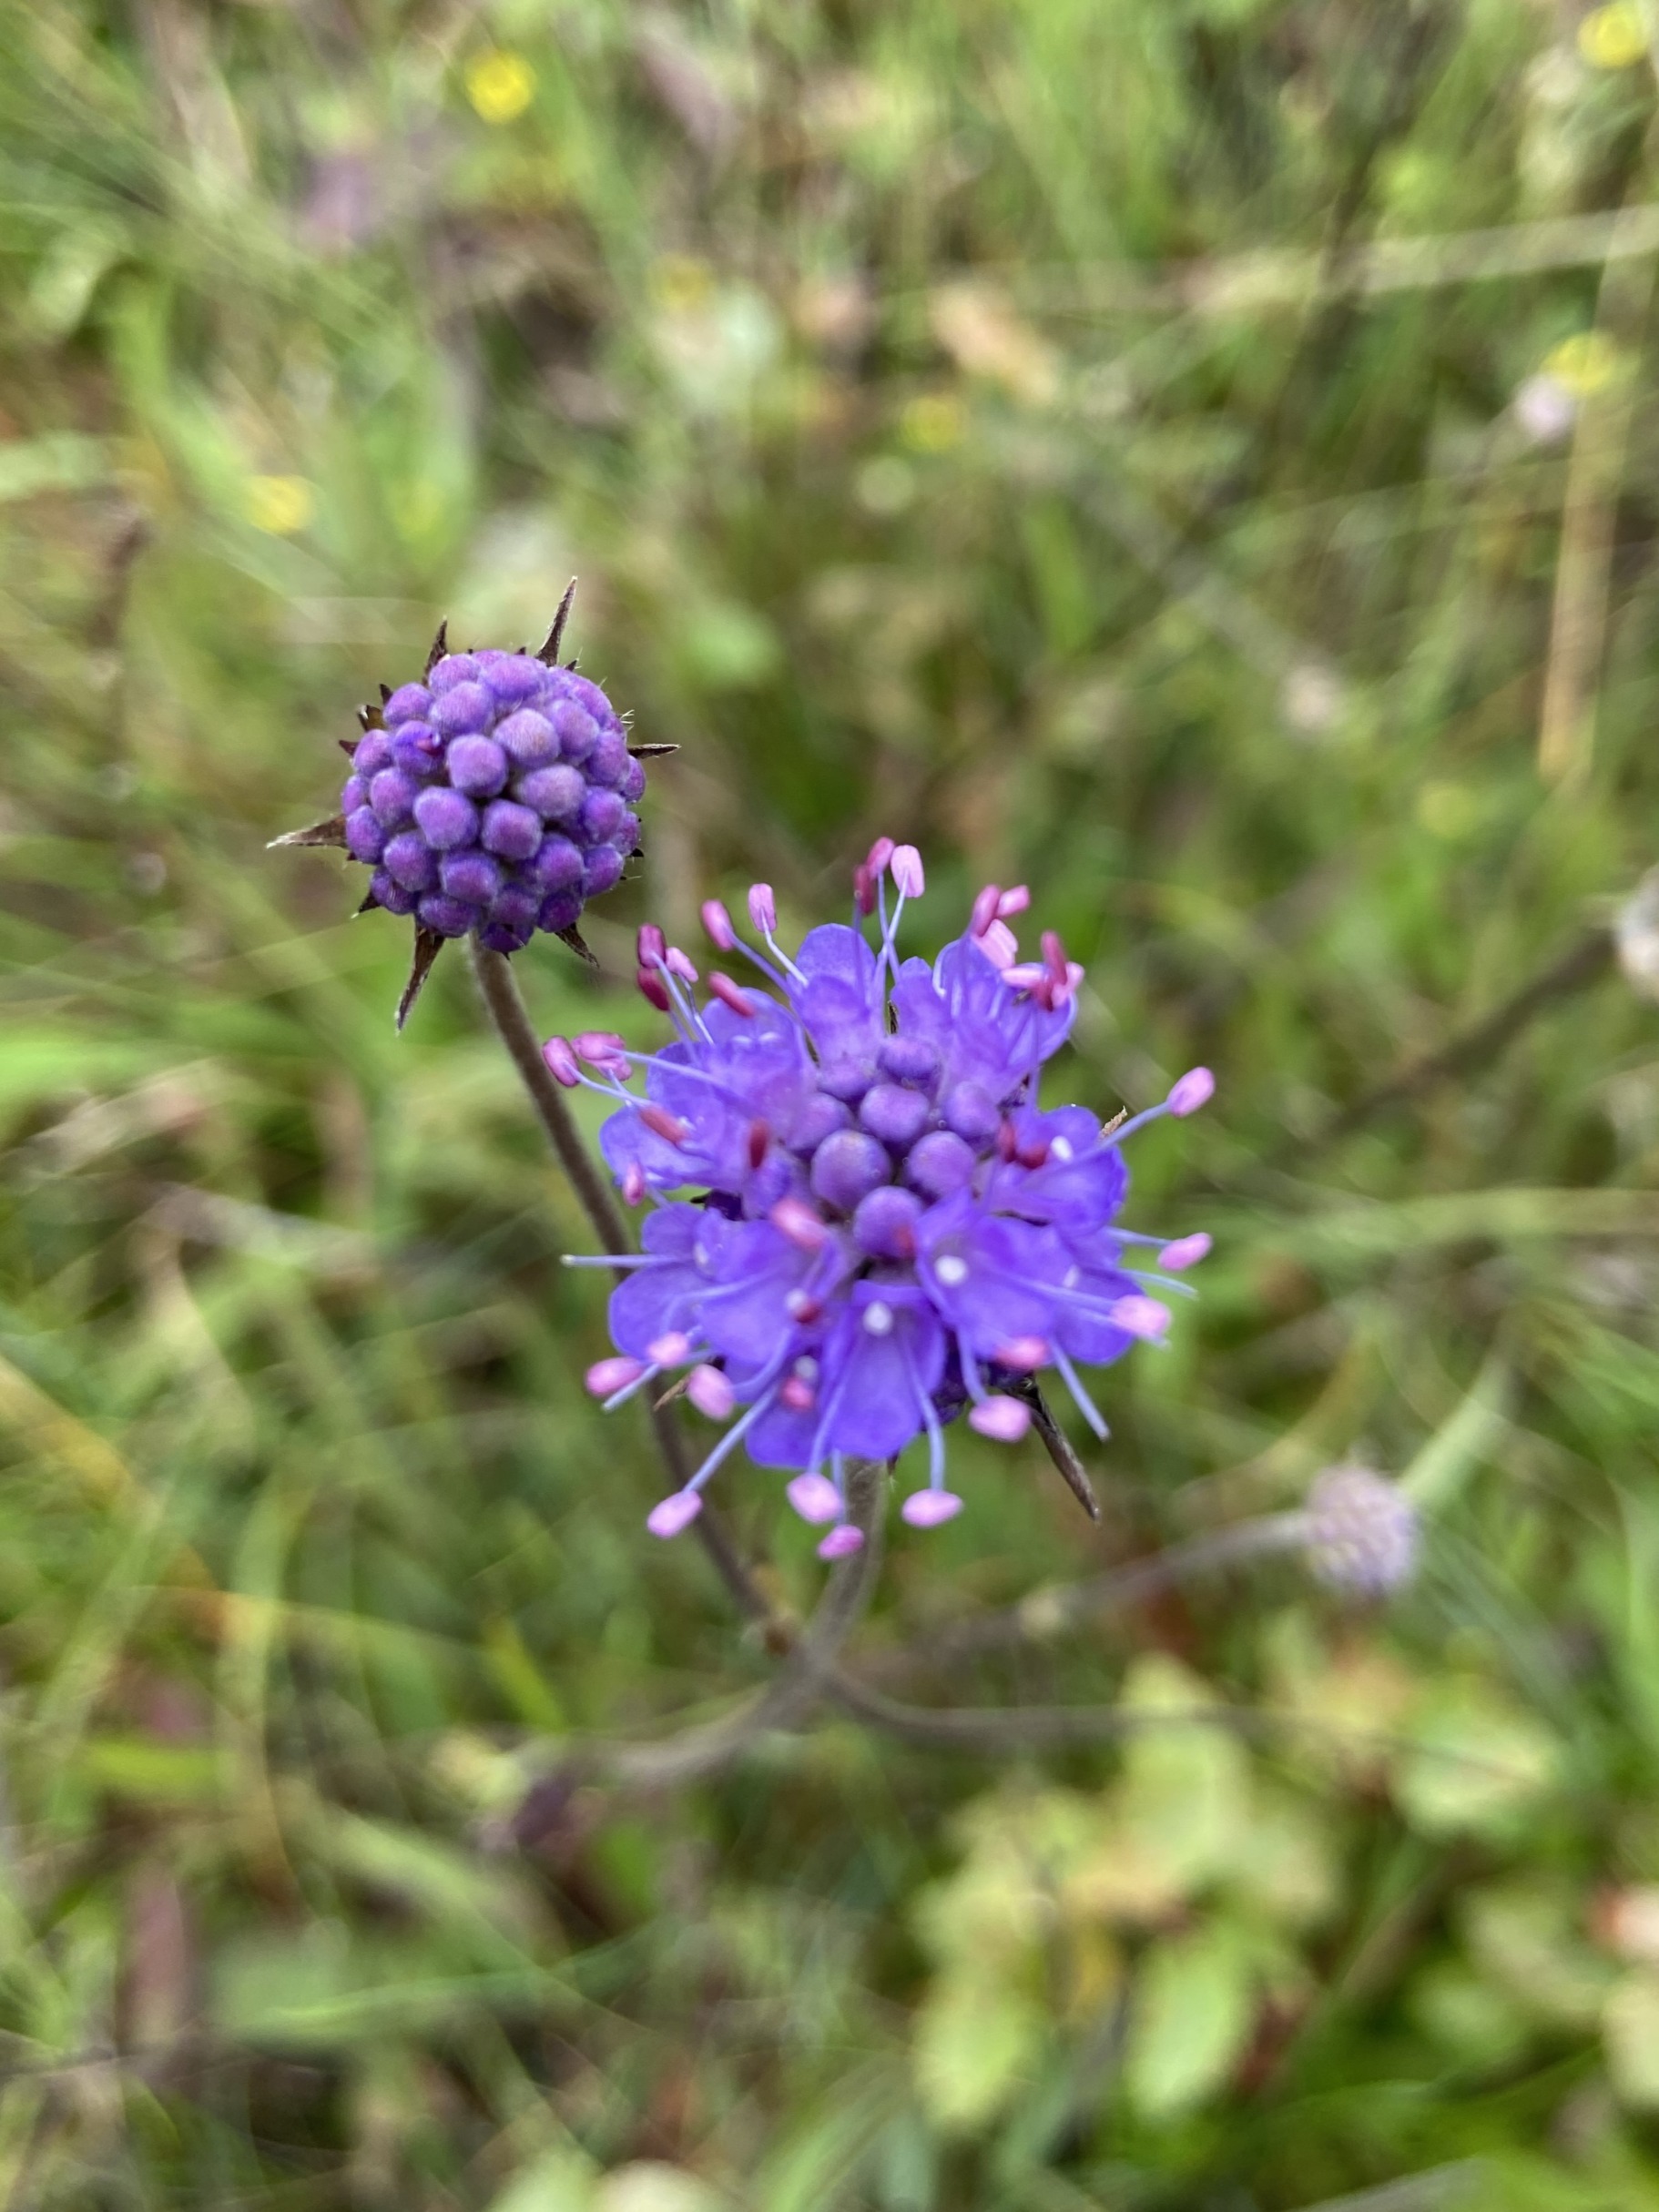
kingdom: Plantae
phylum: Tracheophyta
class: Magnoliopsida
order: Dipsacales
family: Caprifoliaceae
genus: Succisa
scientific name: Succisa pratensis
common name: Djævelsbid
